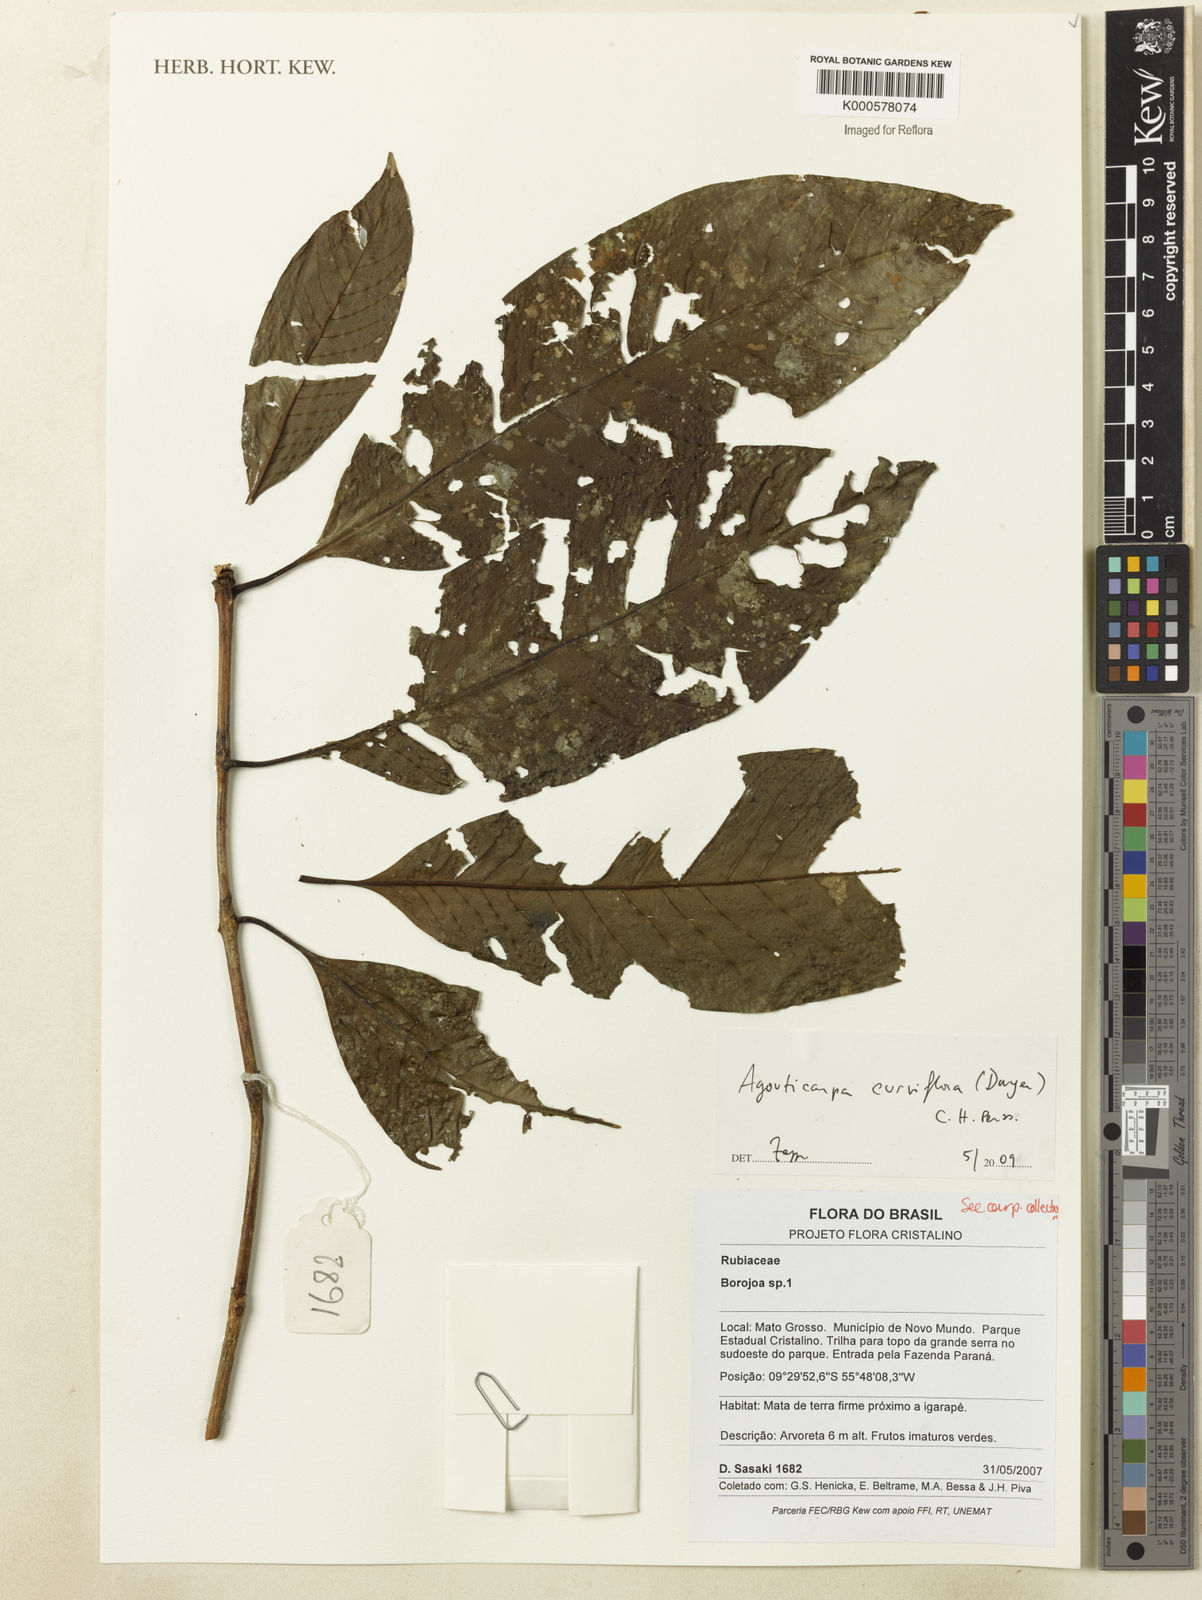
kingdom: Plantae
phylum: Tracheophyta
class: Magnoliopsida
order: Gentianales
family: Rubiaceae
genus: Agouticarpa
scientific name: Agouticarpa curviflora
